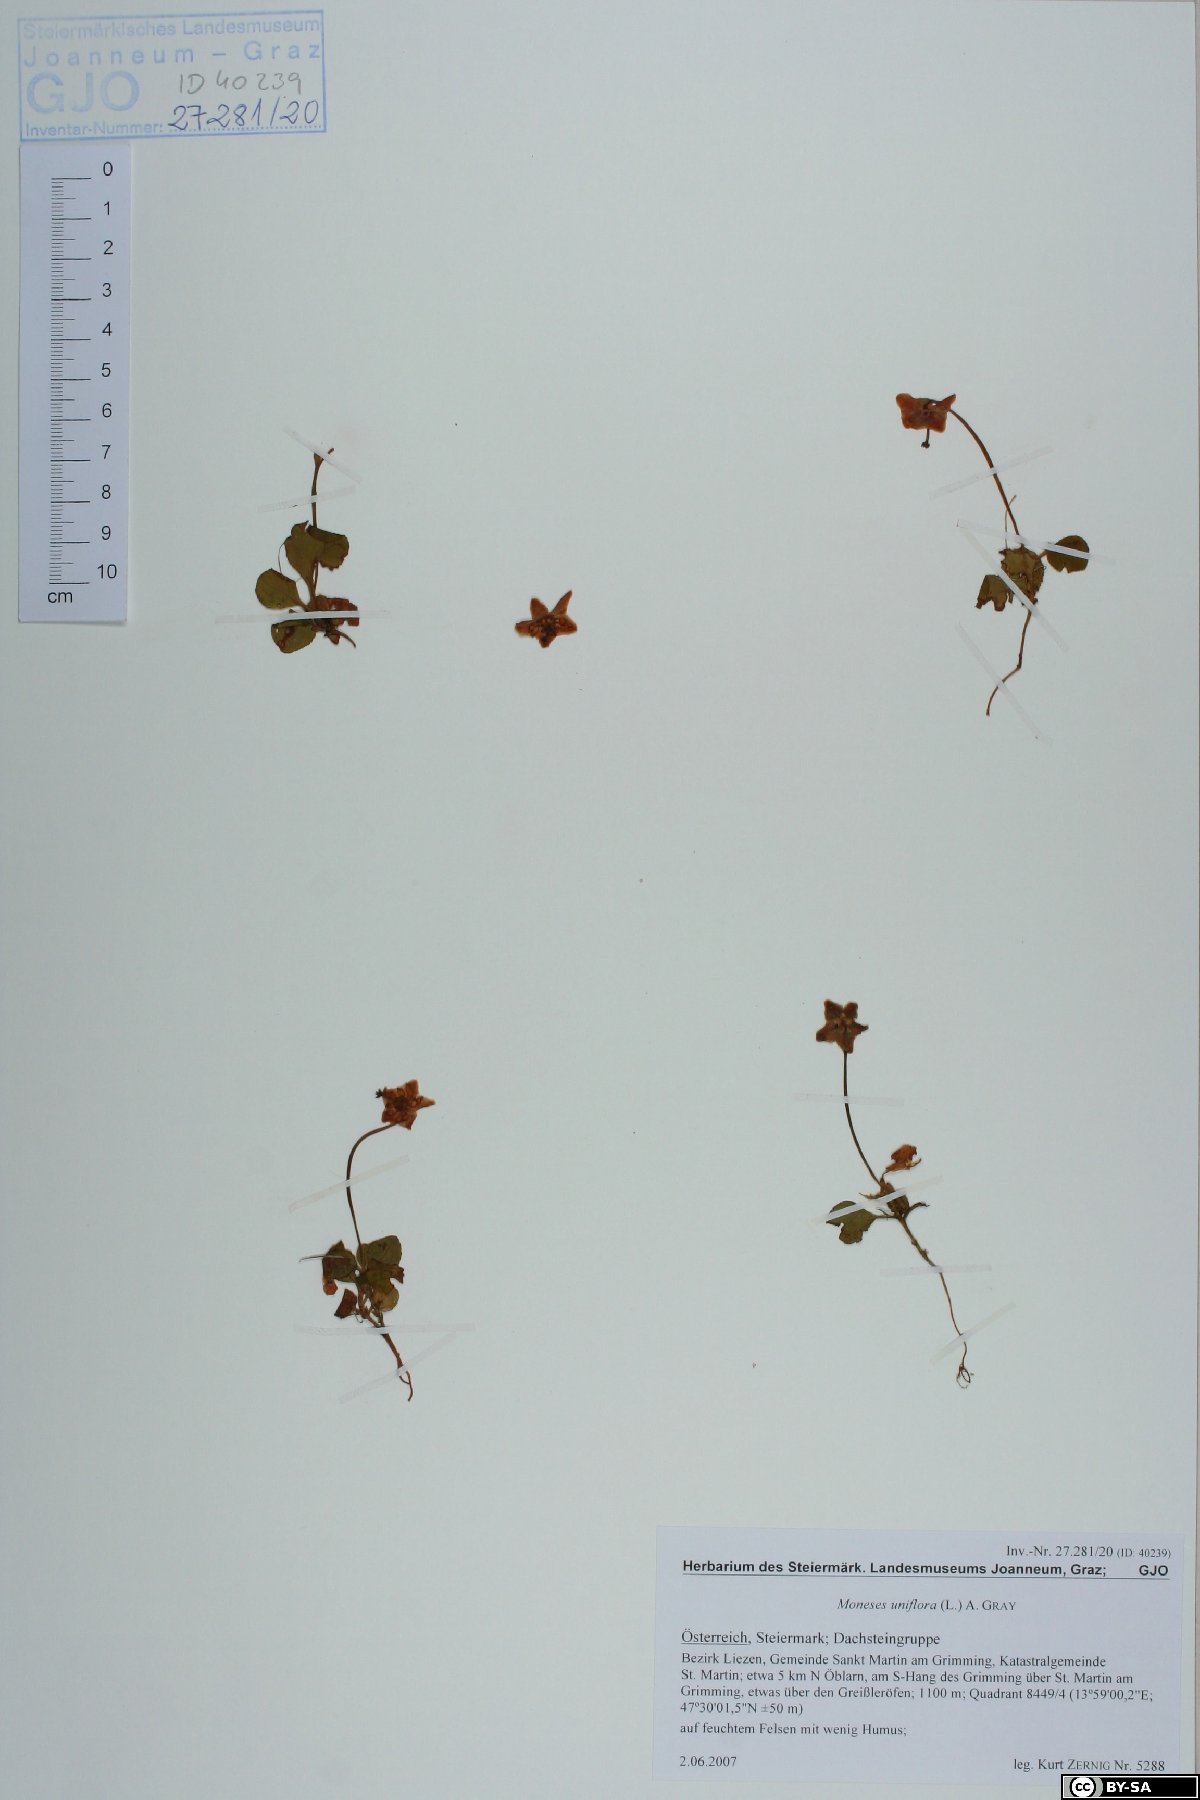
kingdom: Plantae
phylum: Tracheophyta
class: Magnoliopsida
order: Ericales
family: Ericaceae
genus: Moneses
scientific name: Moneses uniflora
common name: One-flowered wintergreen
